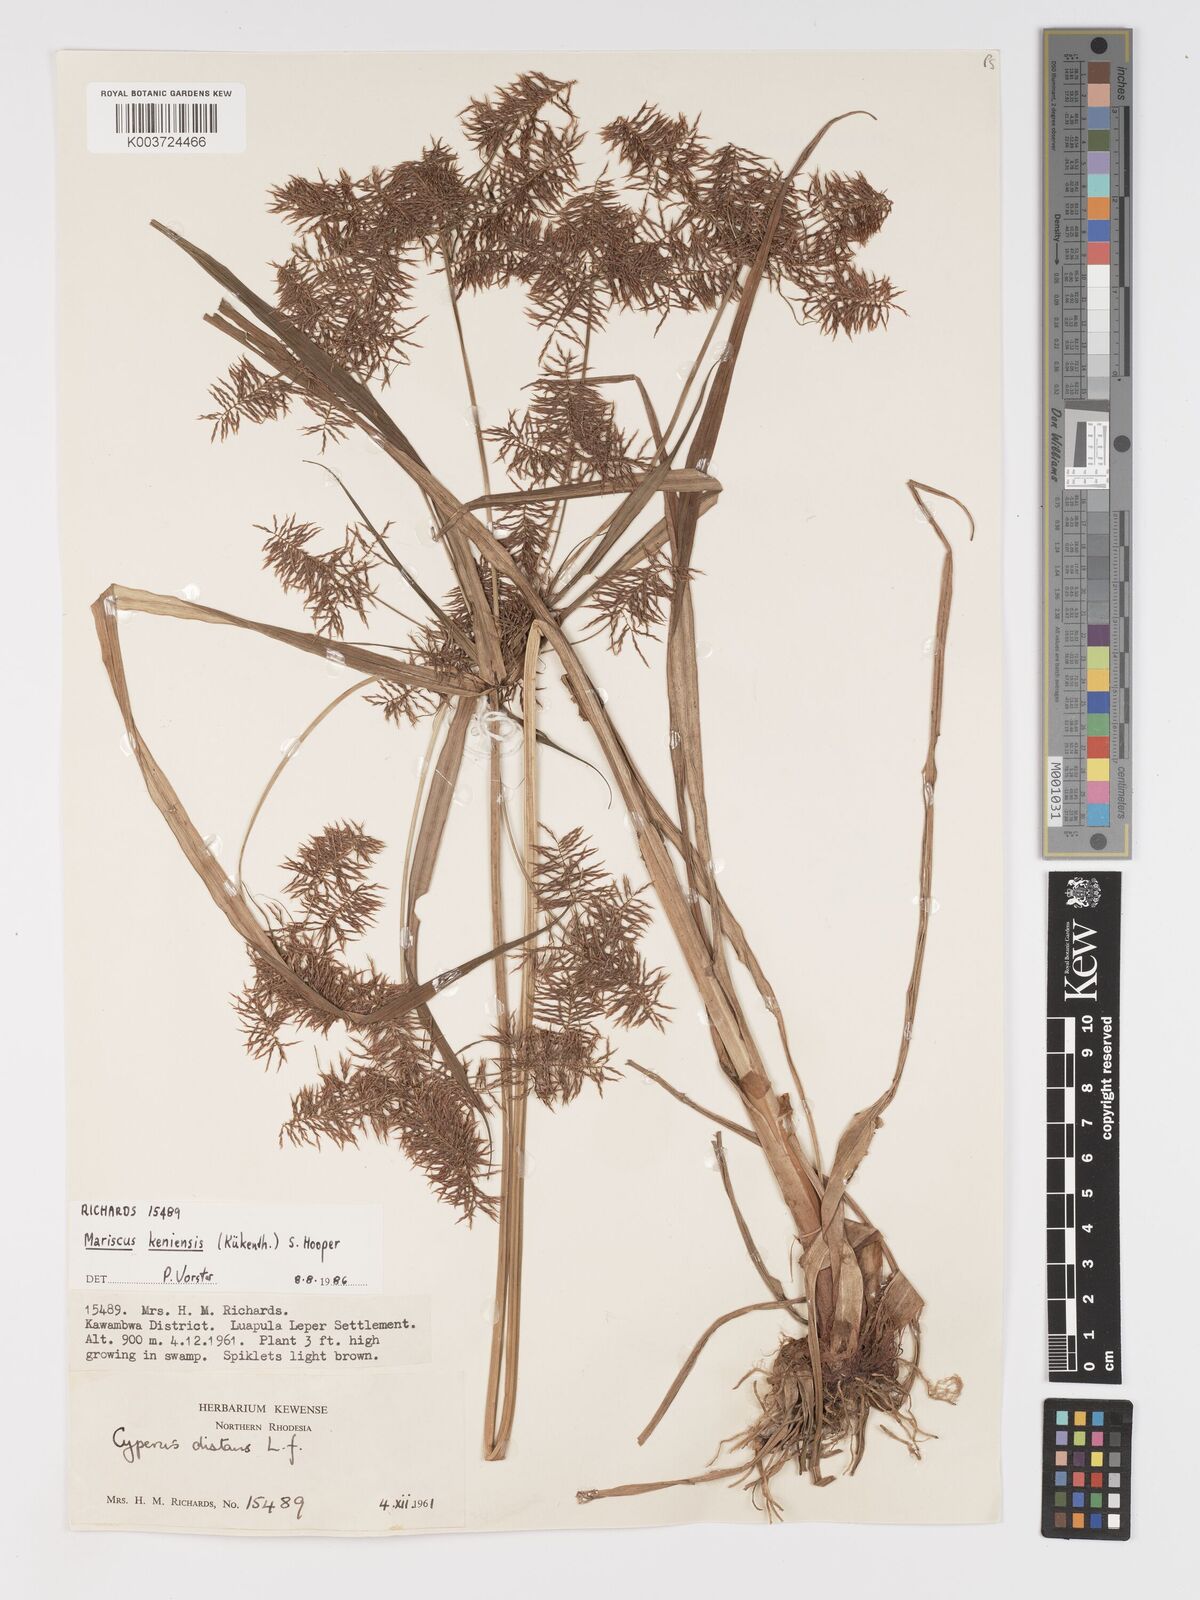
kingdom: Plantae
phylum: Tracheophyta
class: Liliopsida
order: Poales
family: Cyperaceae
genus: Cyperus
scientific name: Cyperus
